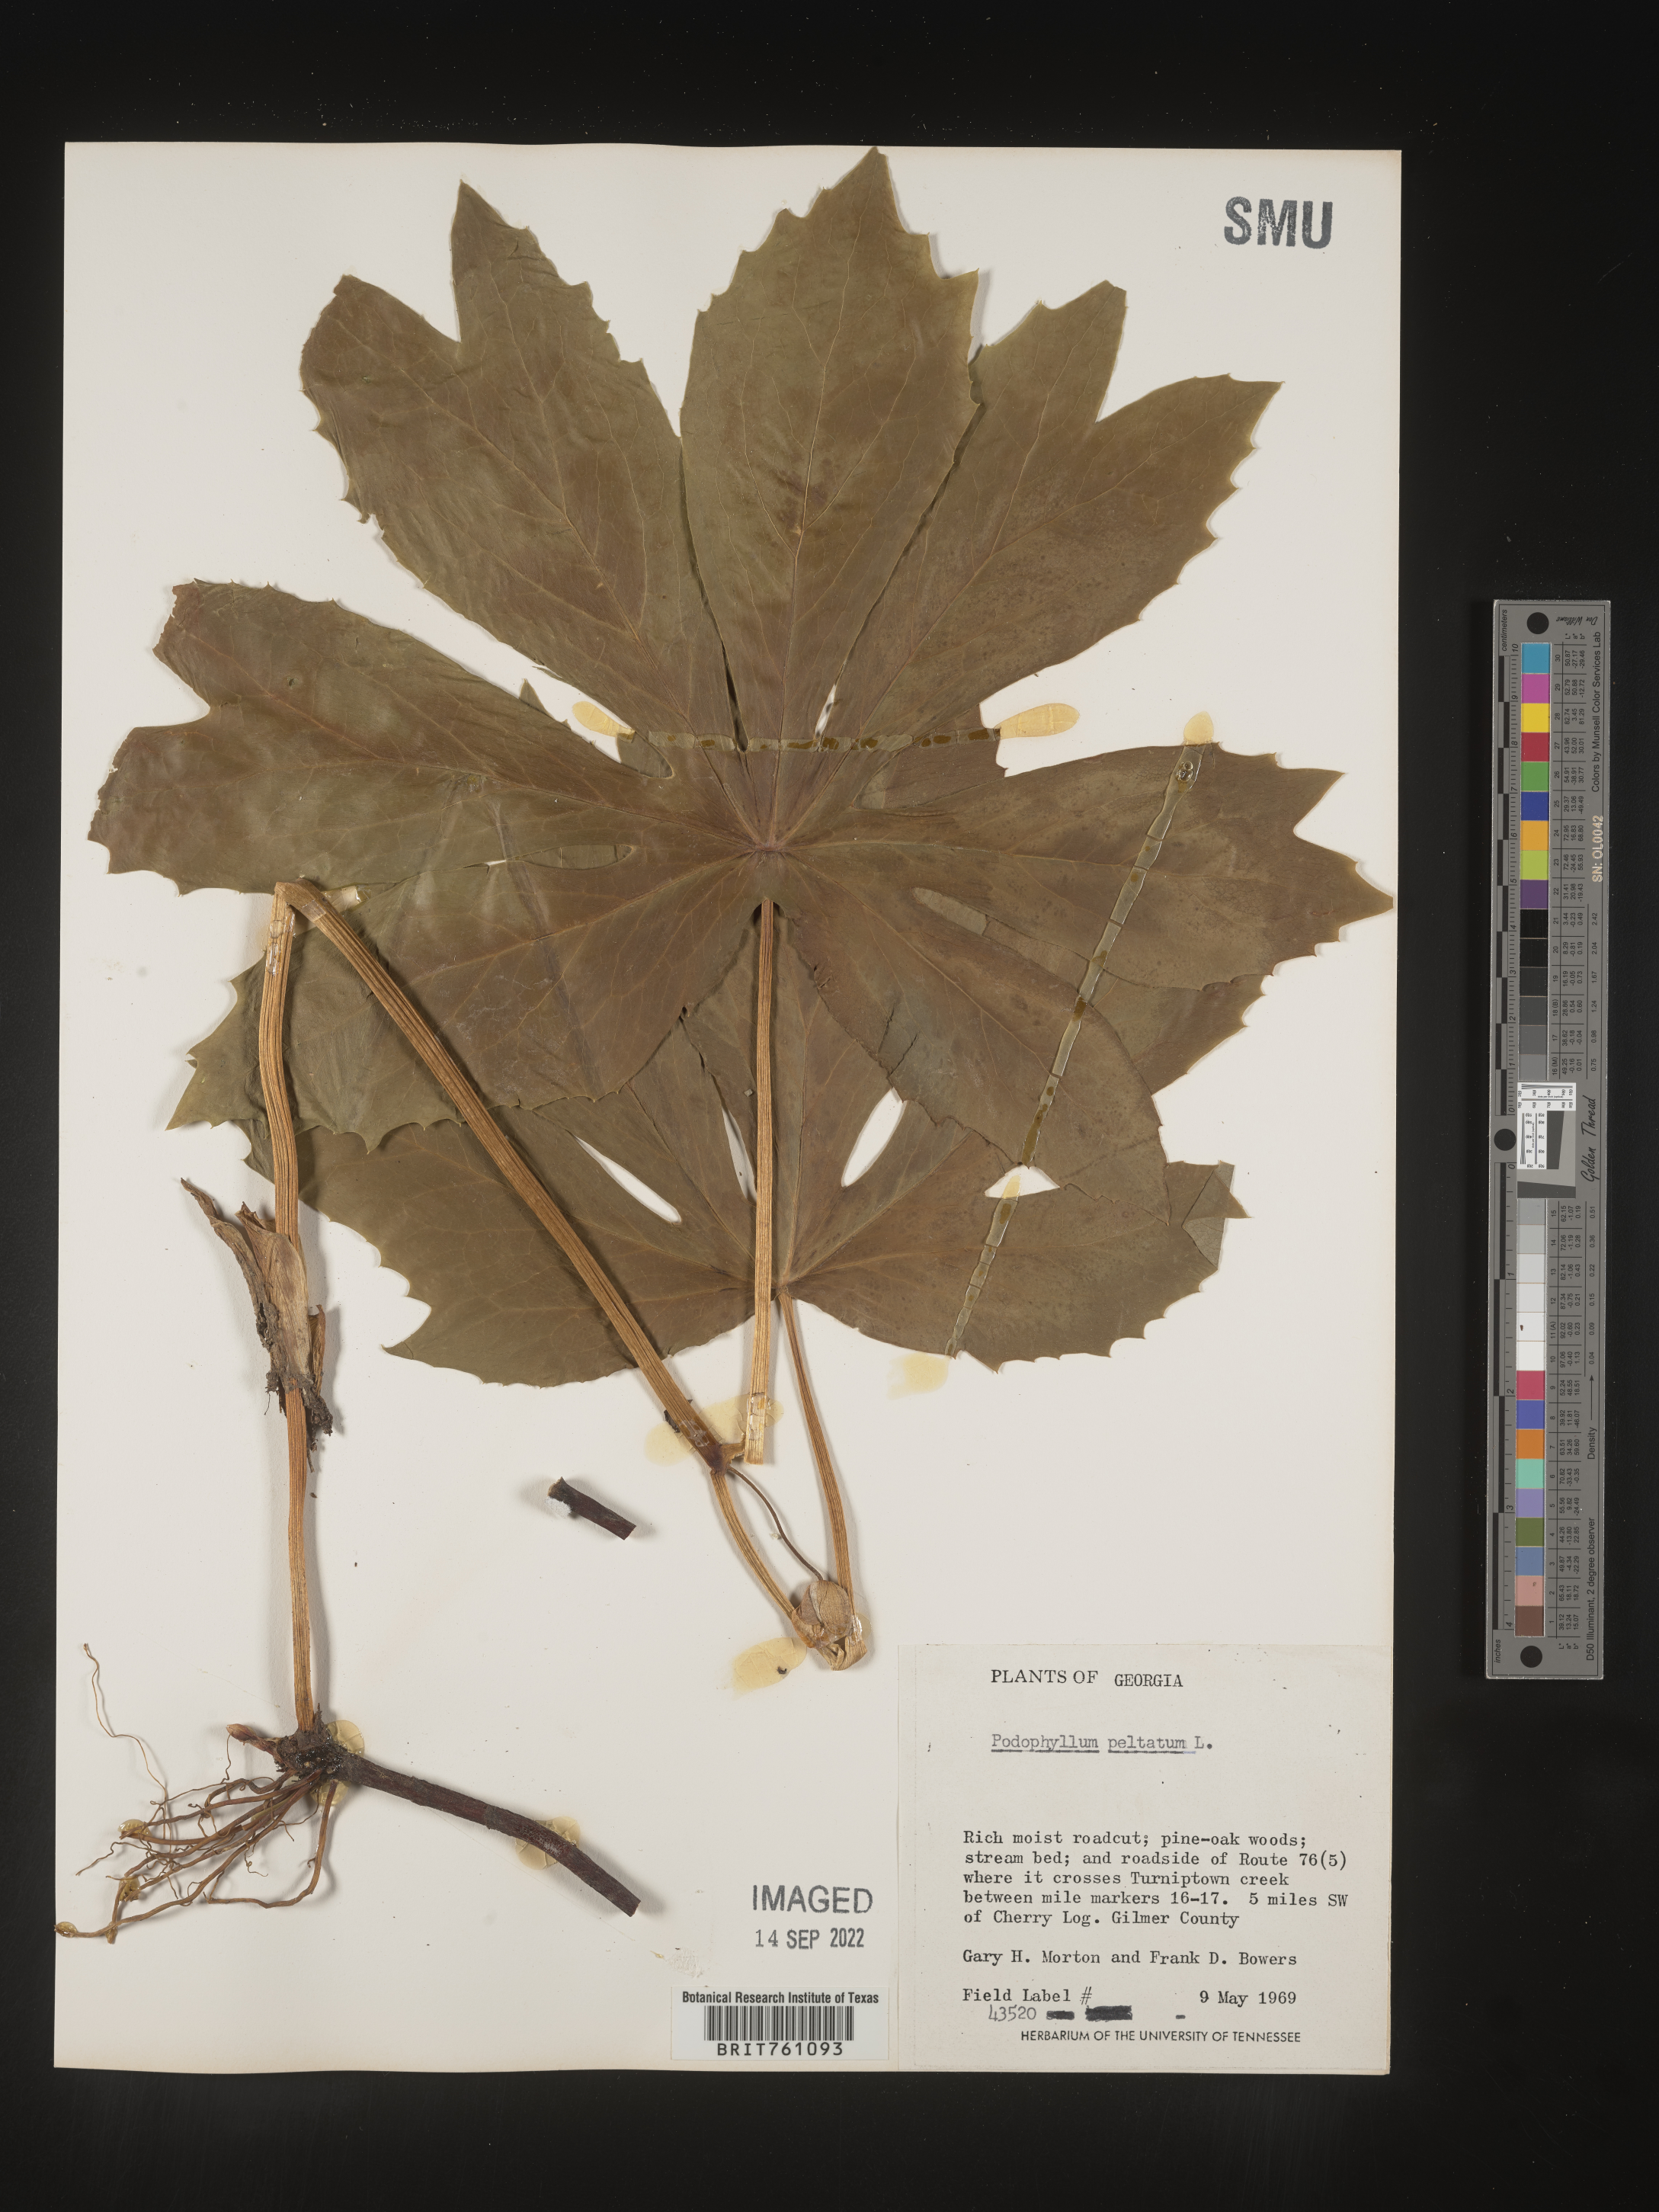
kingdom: Plantae
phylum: Tracheophyta
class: Magnoliopsida
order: Ranunculales
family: Berberidaceae
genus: Podophyllum
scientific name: Podophyllum peltatum
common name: Wild mandrake
